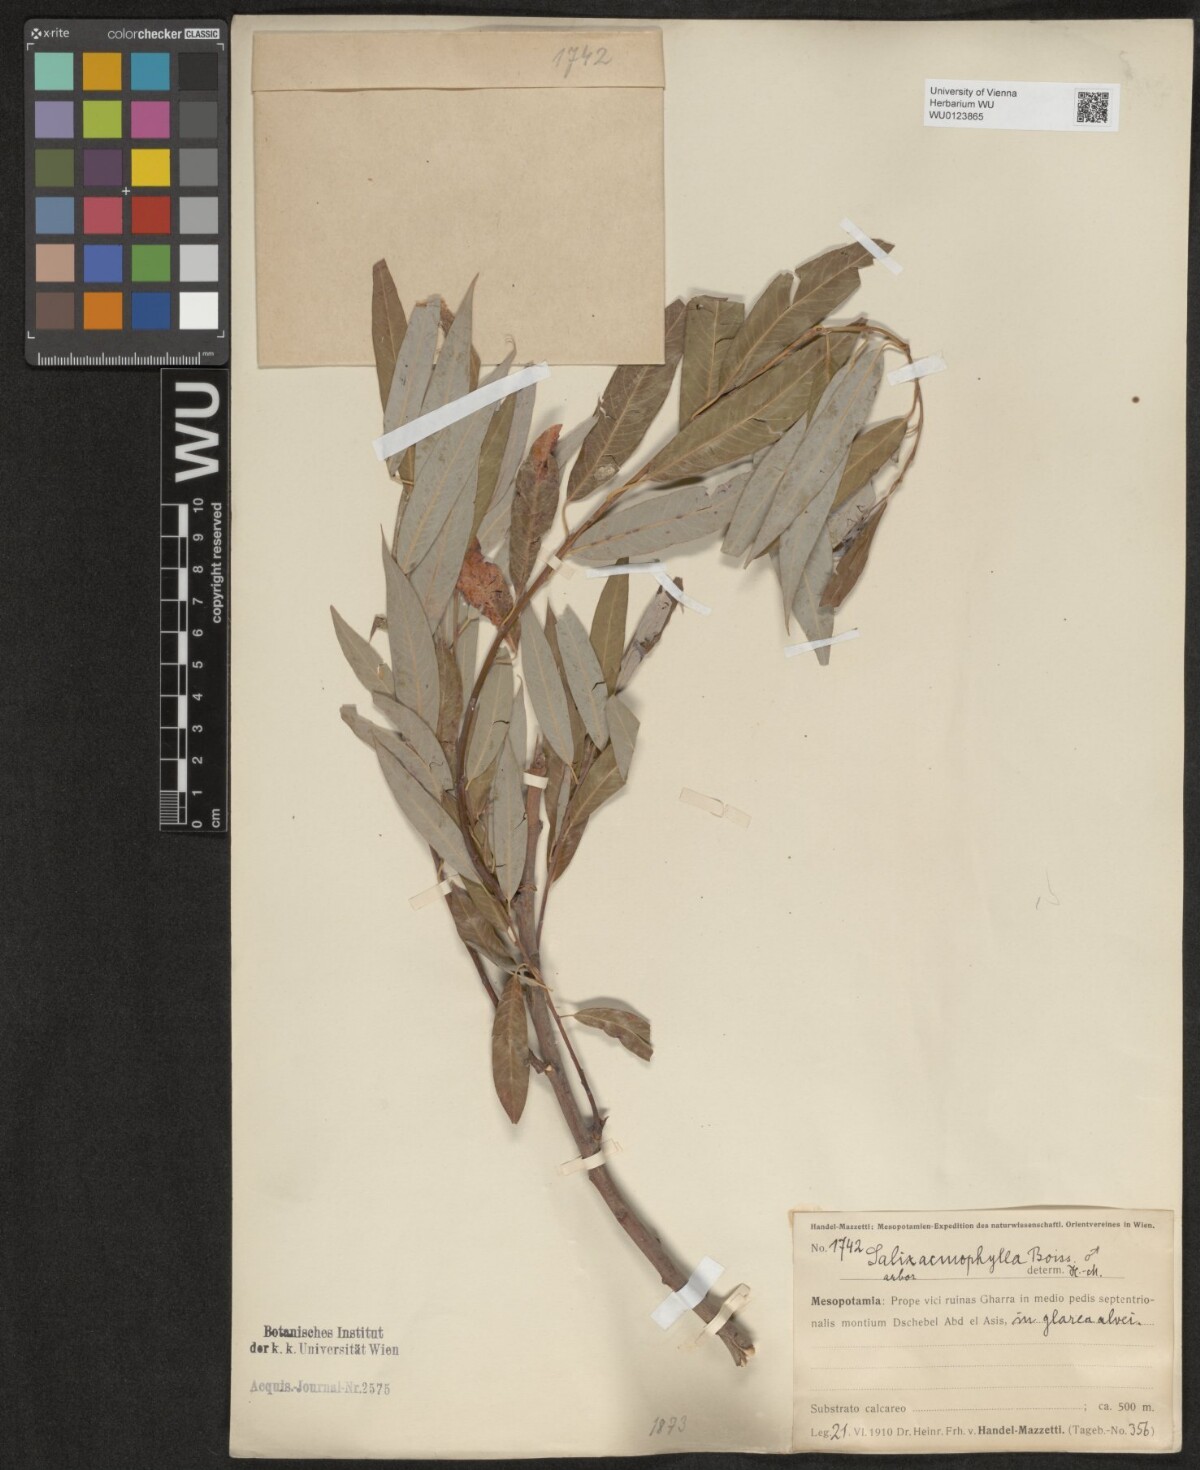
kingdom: Plantae
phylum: Tracheophyta
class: Magnoliopsida
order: Malpighiales
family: Salicaceae
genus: Salix
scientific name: Salix acmophylla
